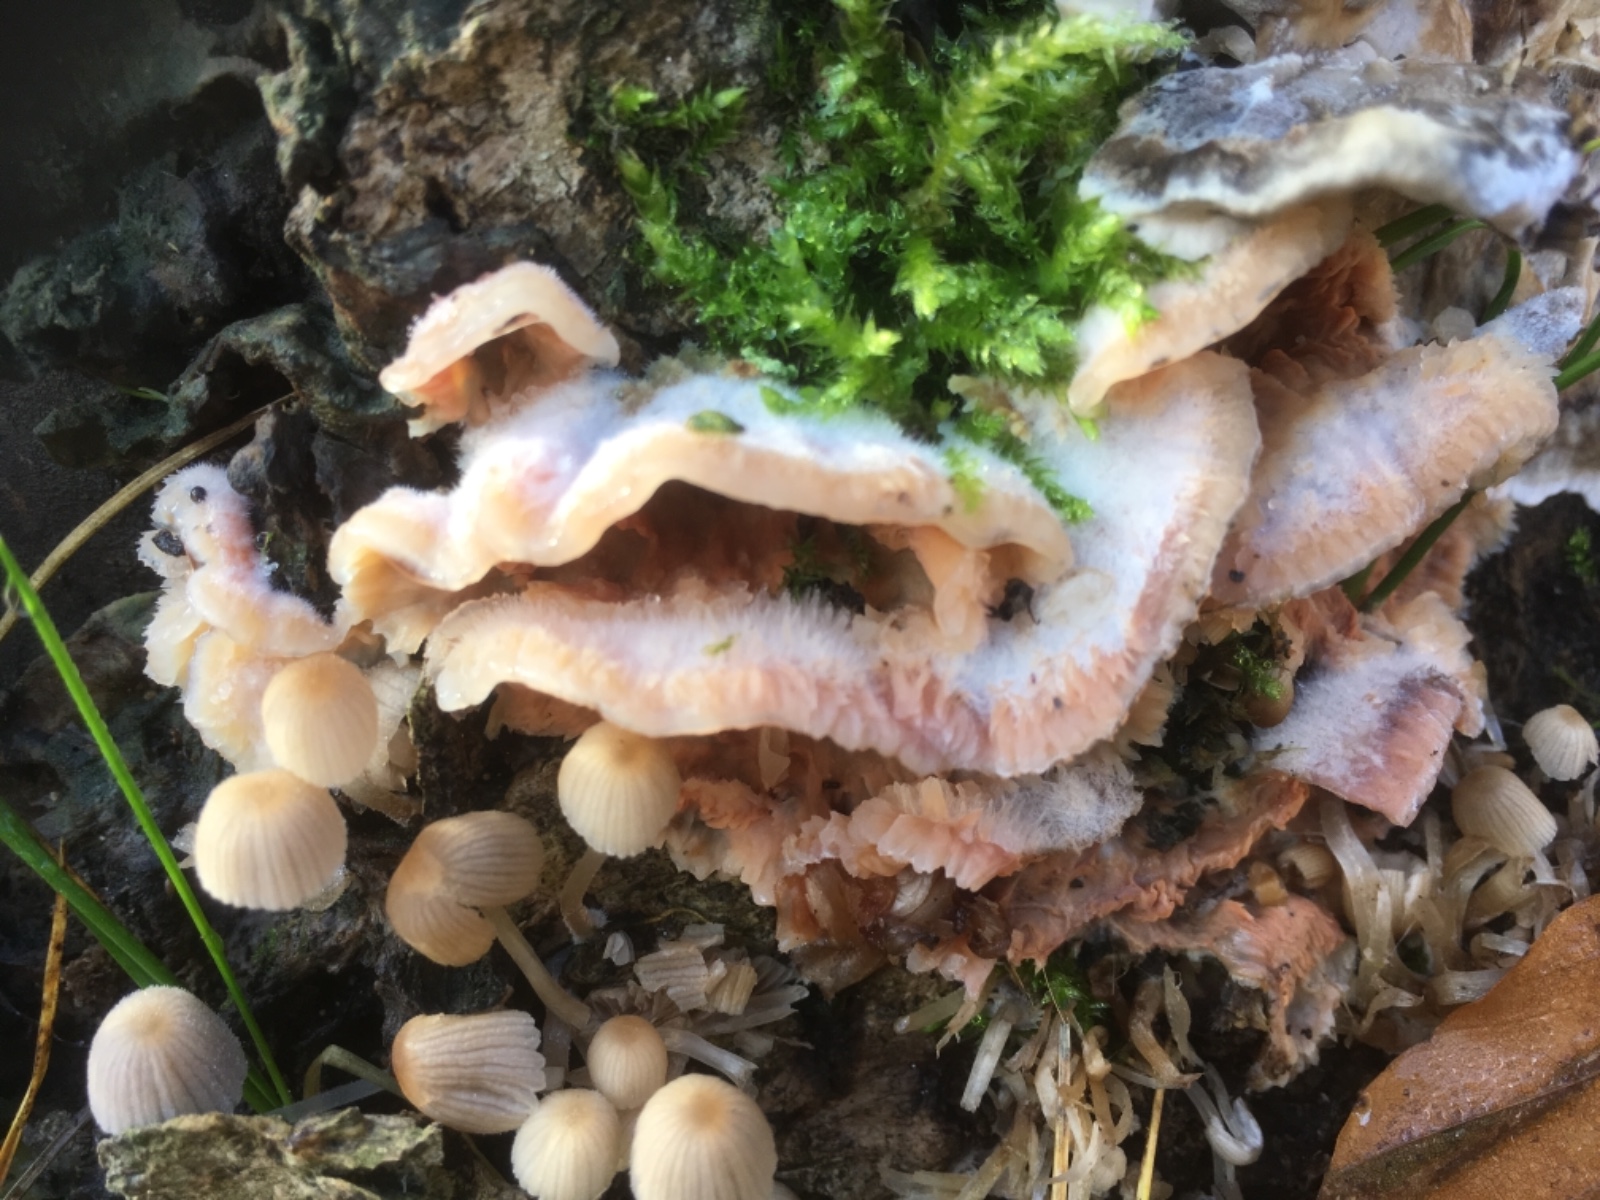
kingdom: Fungi
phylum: Basidiomycota
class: Agaricomycetes
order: Polyporales
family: Meruliaceae
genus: Phlebia
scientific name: Phlebia tremellosa
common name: bævrende åresvamp
